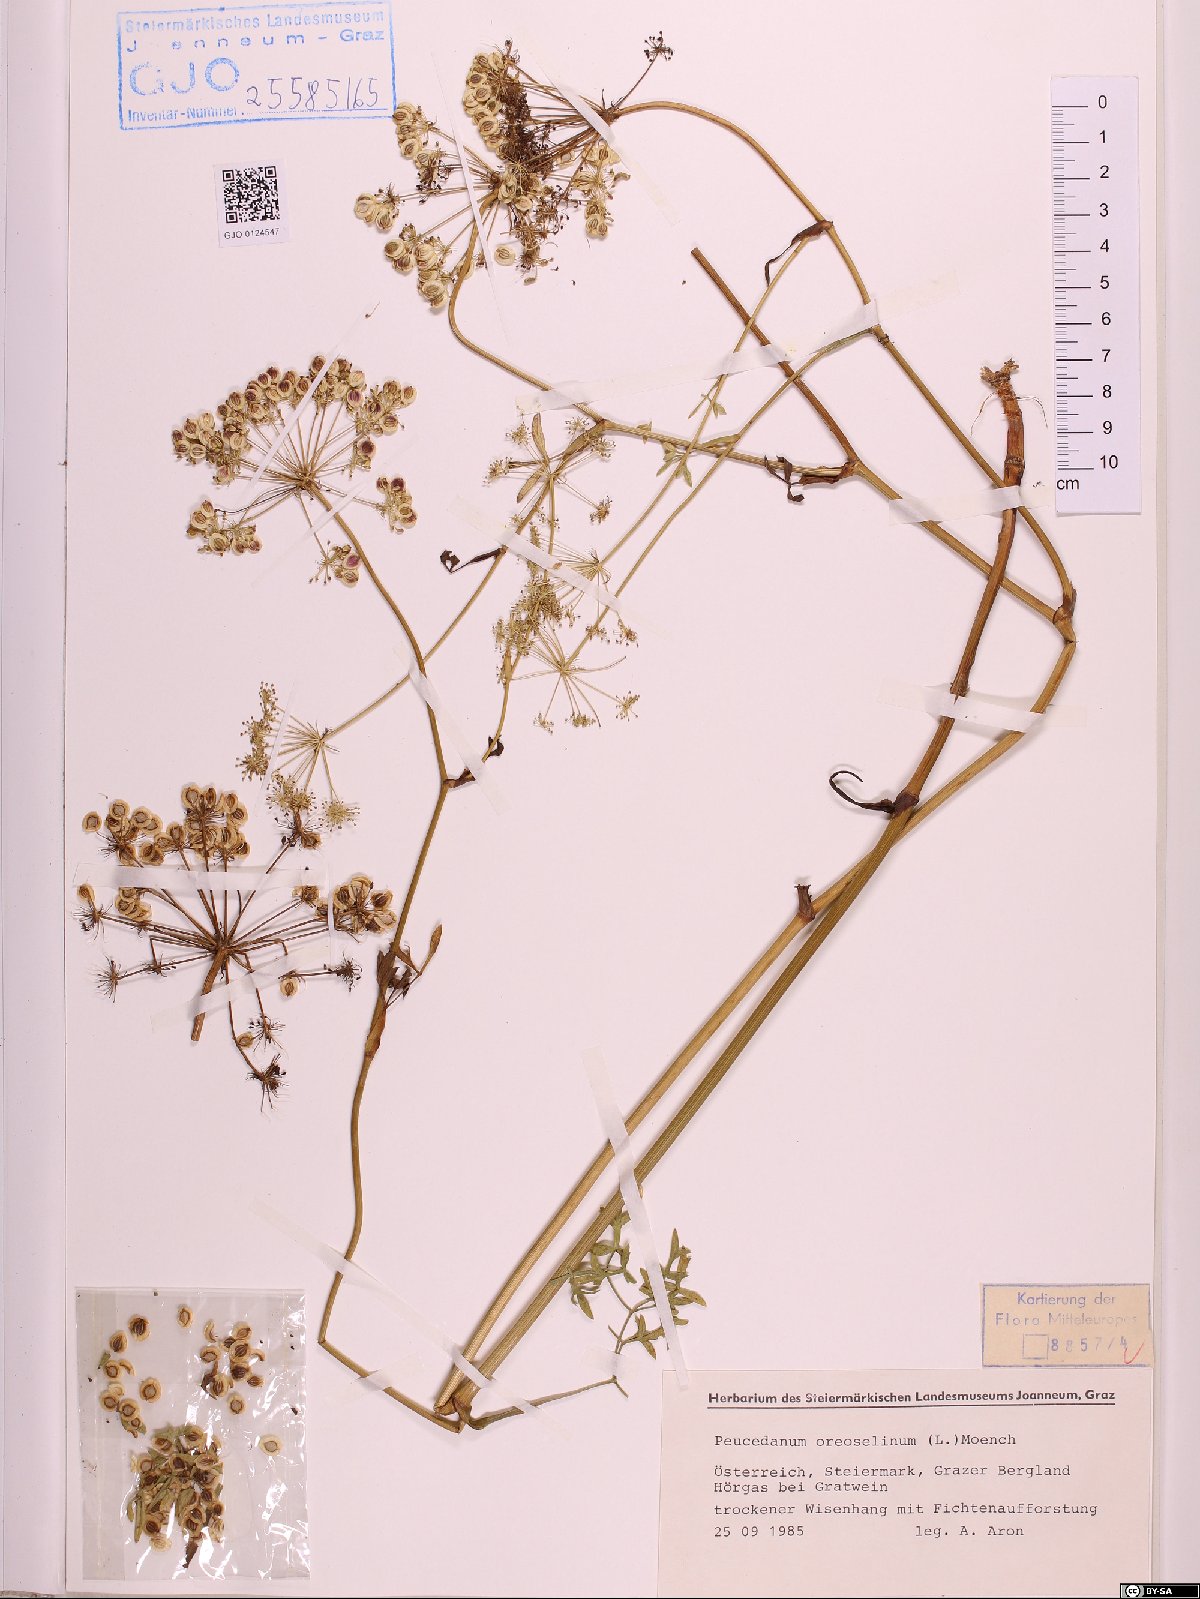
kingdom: Plantae
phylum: Tracheophyta
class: Magnoliopsida
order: Apiales
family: Apiaceae
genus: Oreoselinum
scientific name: Oreoselinum nigrum
